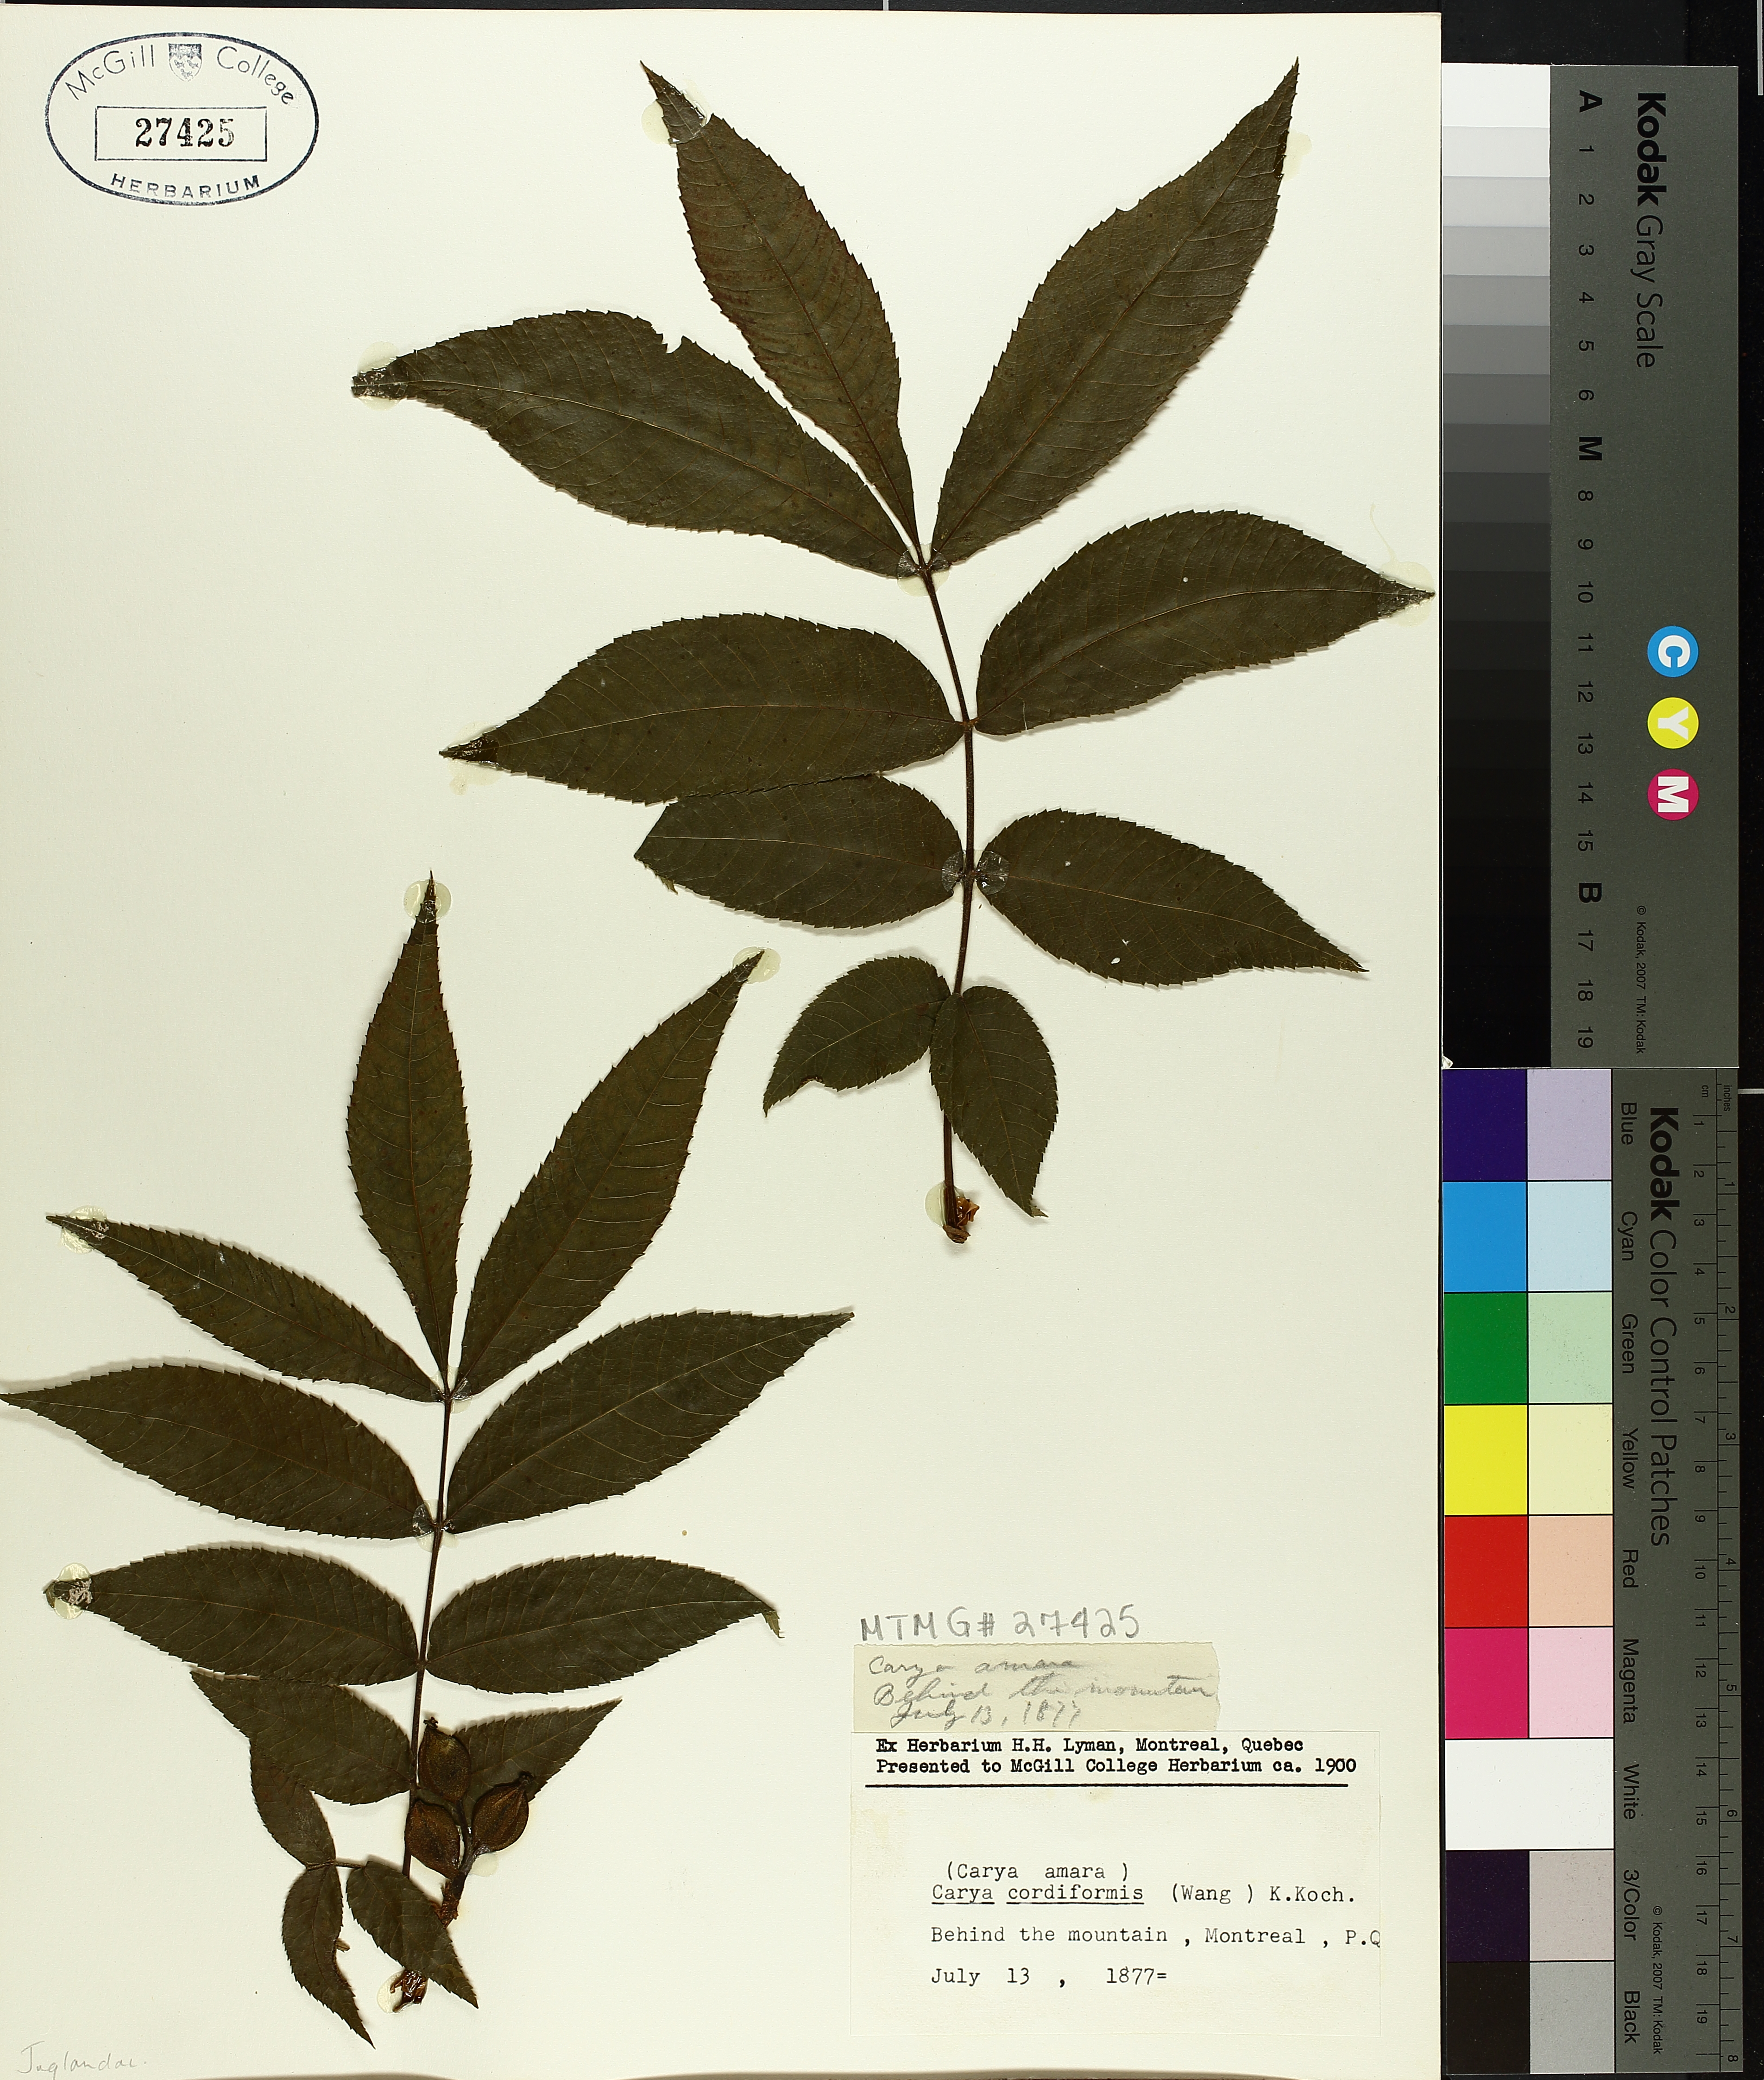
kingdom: Plantae
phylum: Tracheophyta
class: Magnoliopsida
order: Fagales
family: Juglandaceae
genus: Carya
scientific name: Carya cordiformis
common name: Bitternut hickory
